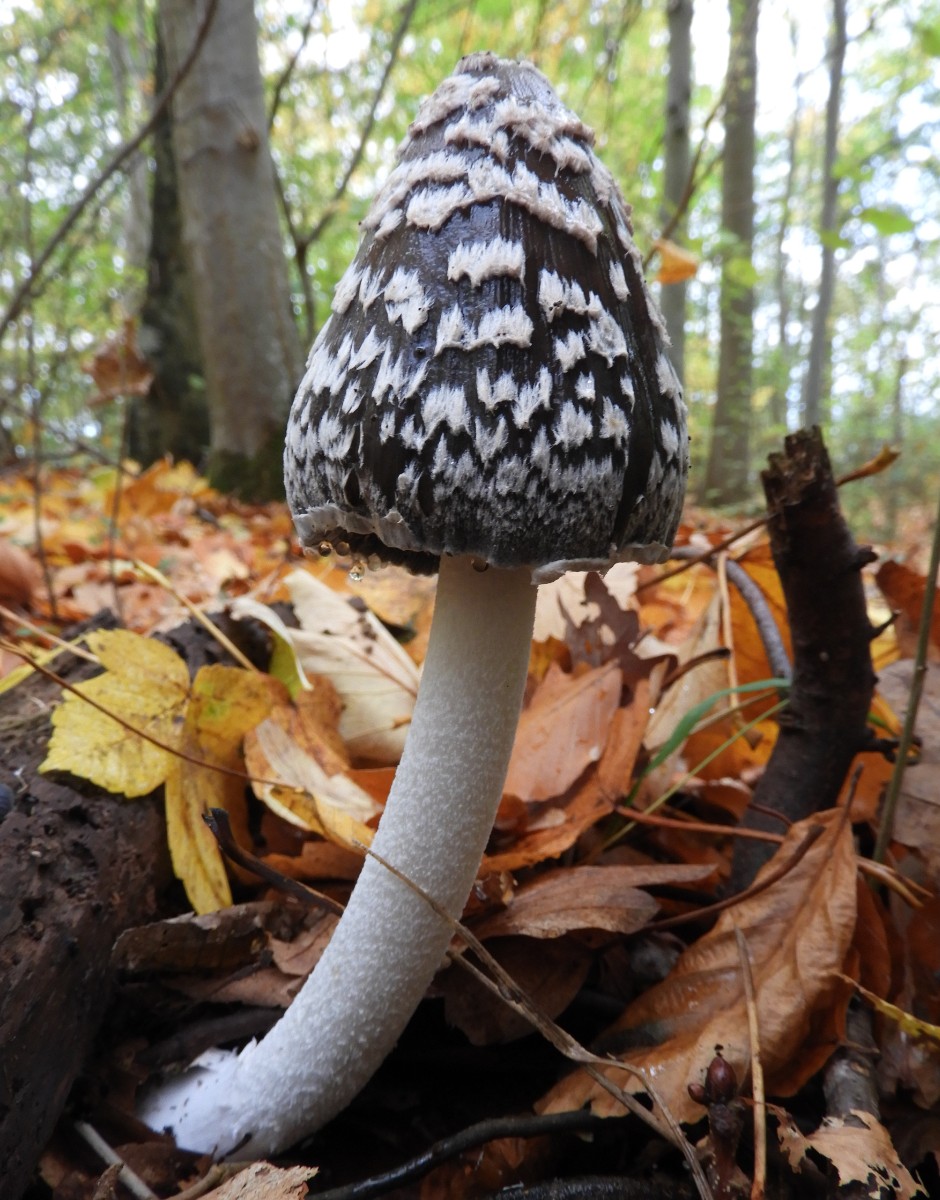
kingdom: Fungi
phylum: Basidiomycota
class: Agaricomycetes
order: Agaricales
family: Psathyrellaceae
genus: Coprinopsis
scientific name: Coprinopsis picacea
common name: skade-blækhat
